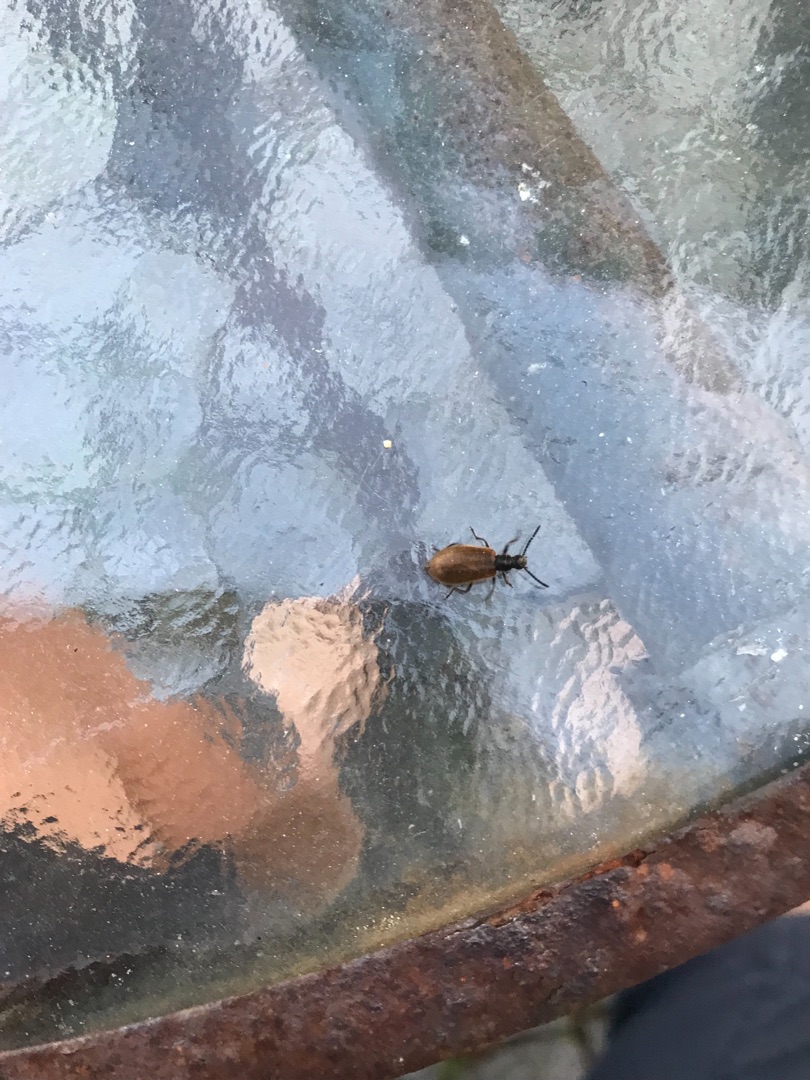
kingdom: Animalia
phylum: Arthropoda
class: Insecta
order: Coleoptera
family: Tenebrionidae
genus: Lagria
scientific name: Lagria hirta
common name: Håret skyggebille
